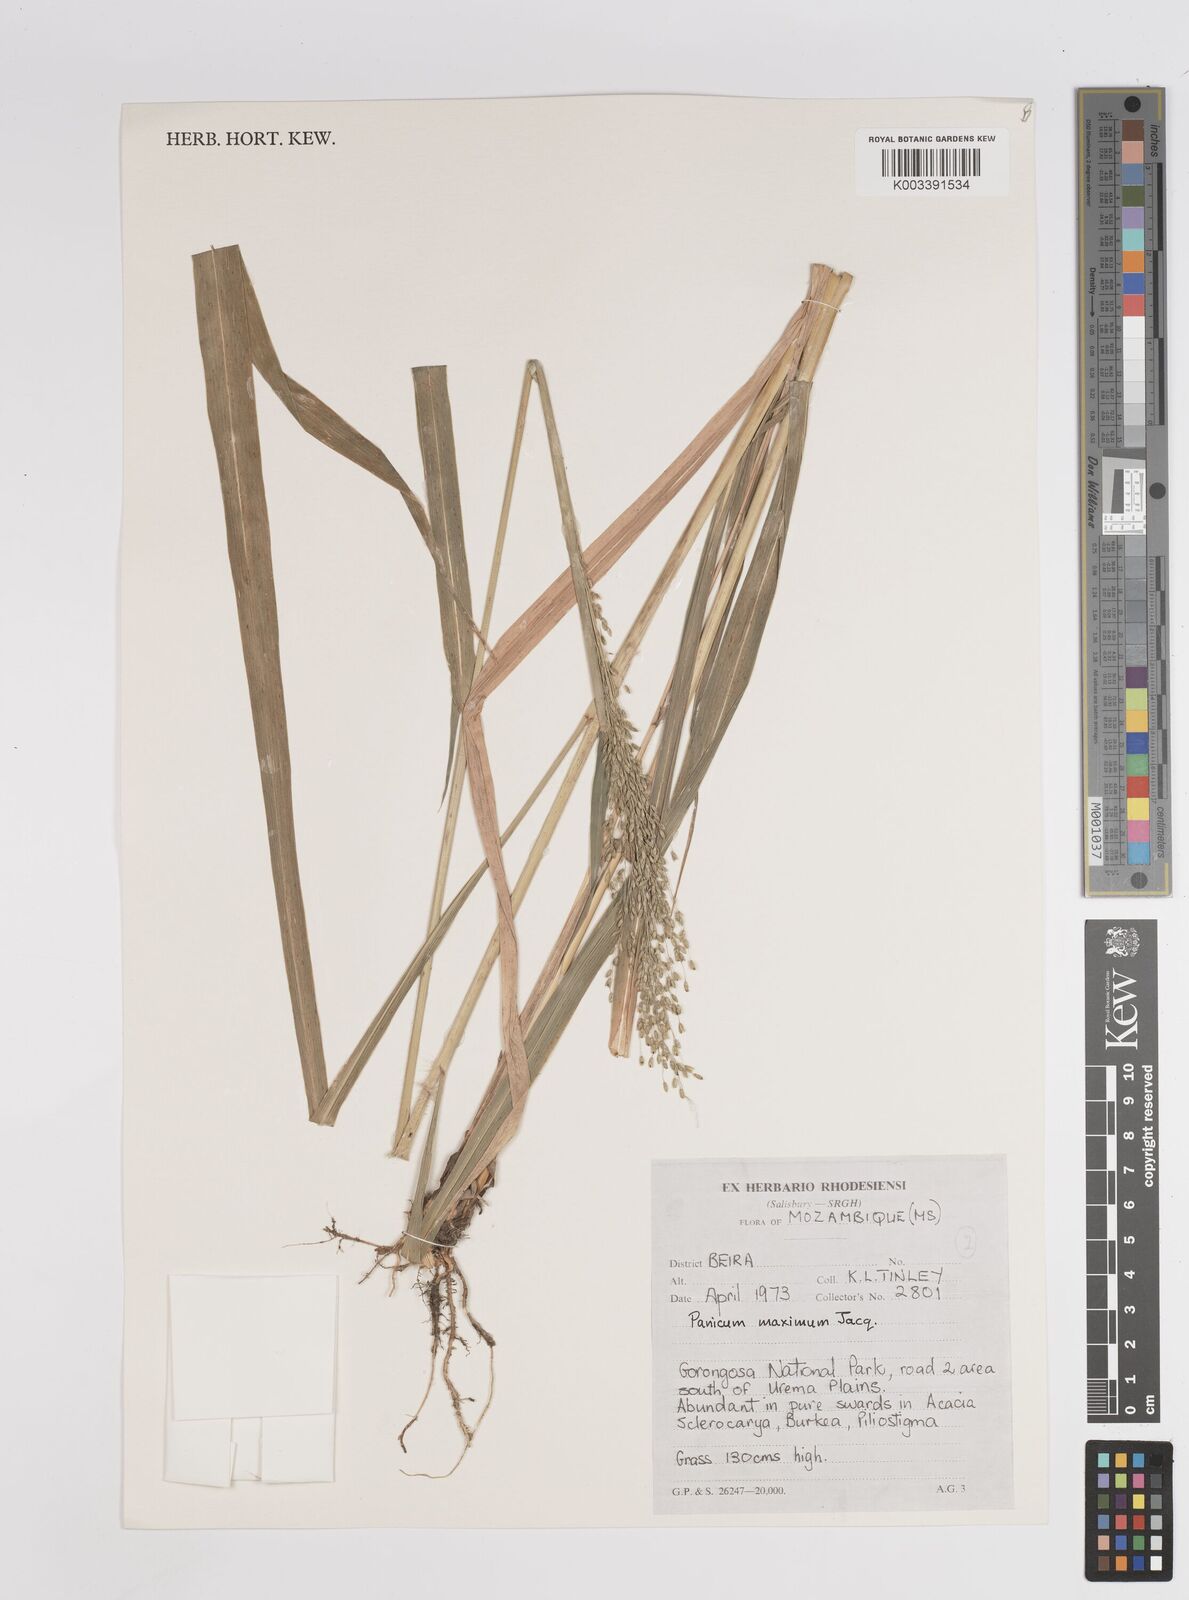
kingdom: Plantae
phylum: Tracheophyta
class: Liliopsida
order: Poales
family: Poaceae
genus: Megathyrsus
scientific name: Megathyrsus maximus
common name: Guineagrass
